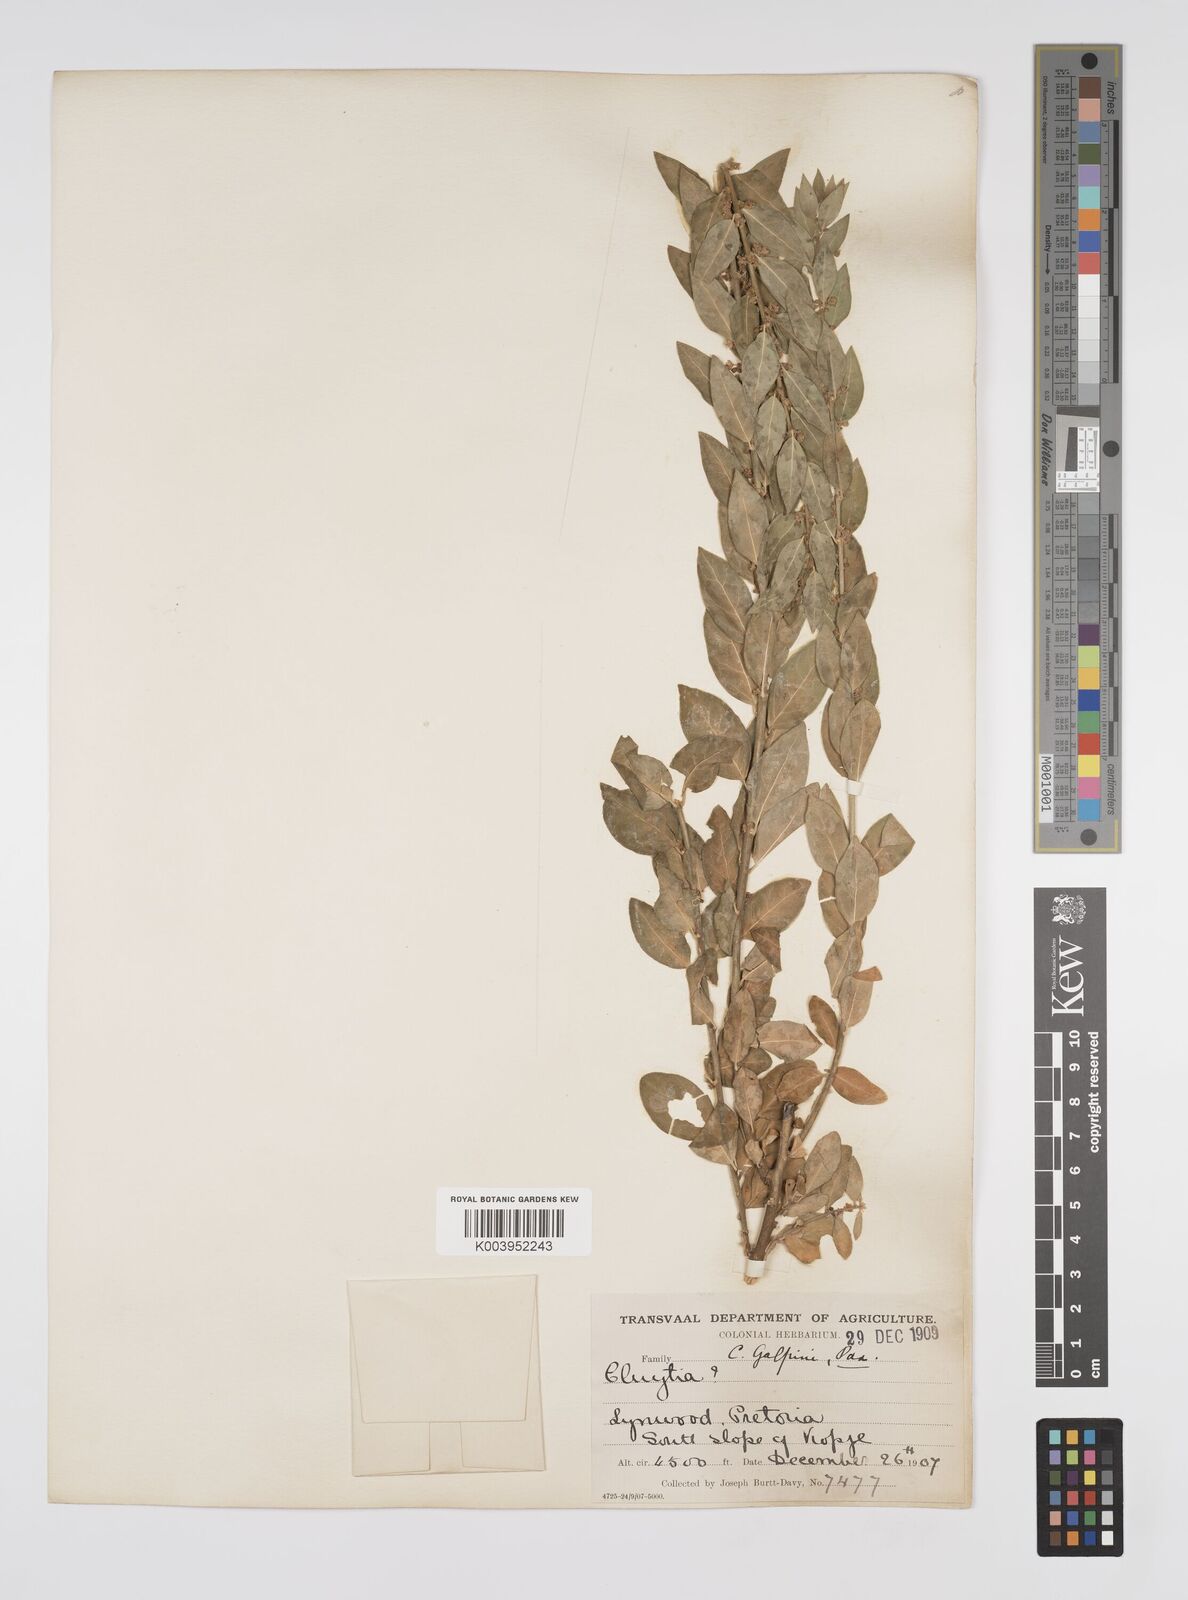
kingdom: Plantae
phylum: Tracheophyta
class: Magnoliopsida
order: Malpighiales
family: Peraceae
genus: Clutia
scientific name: Clutia affinis
